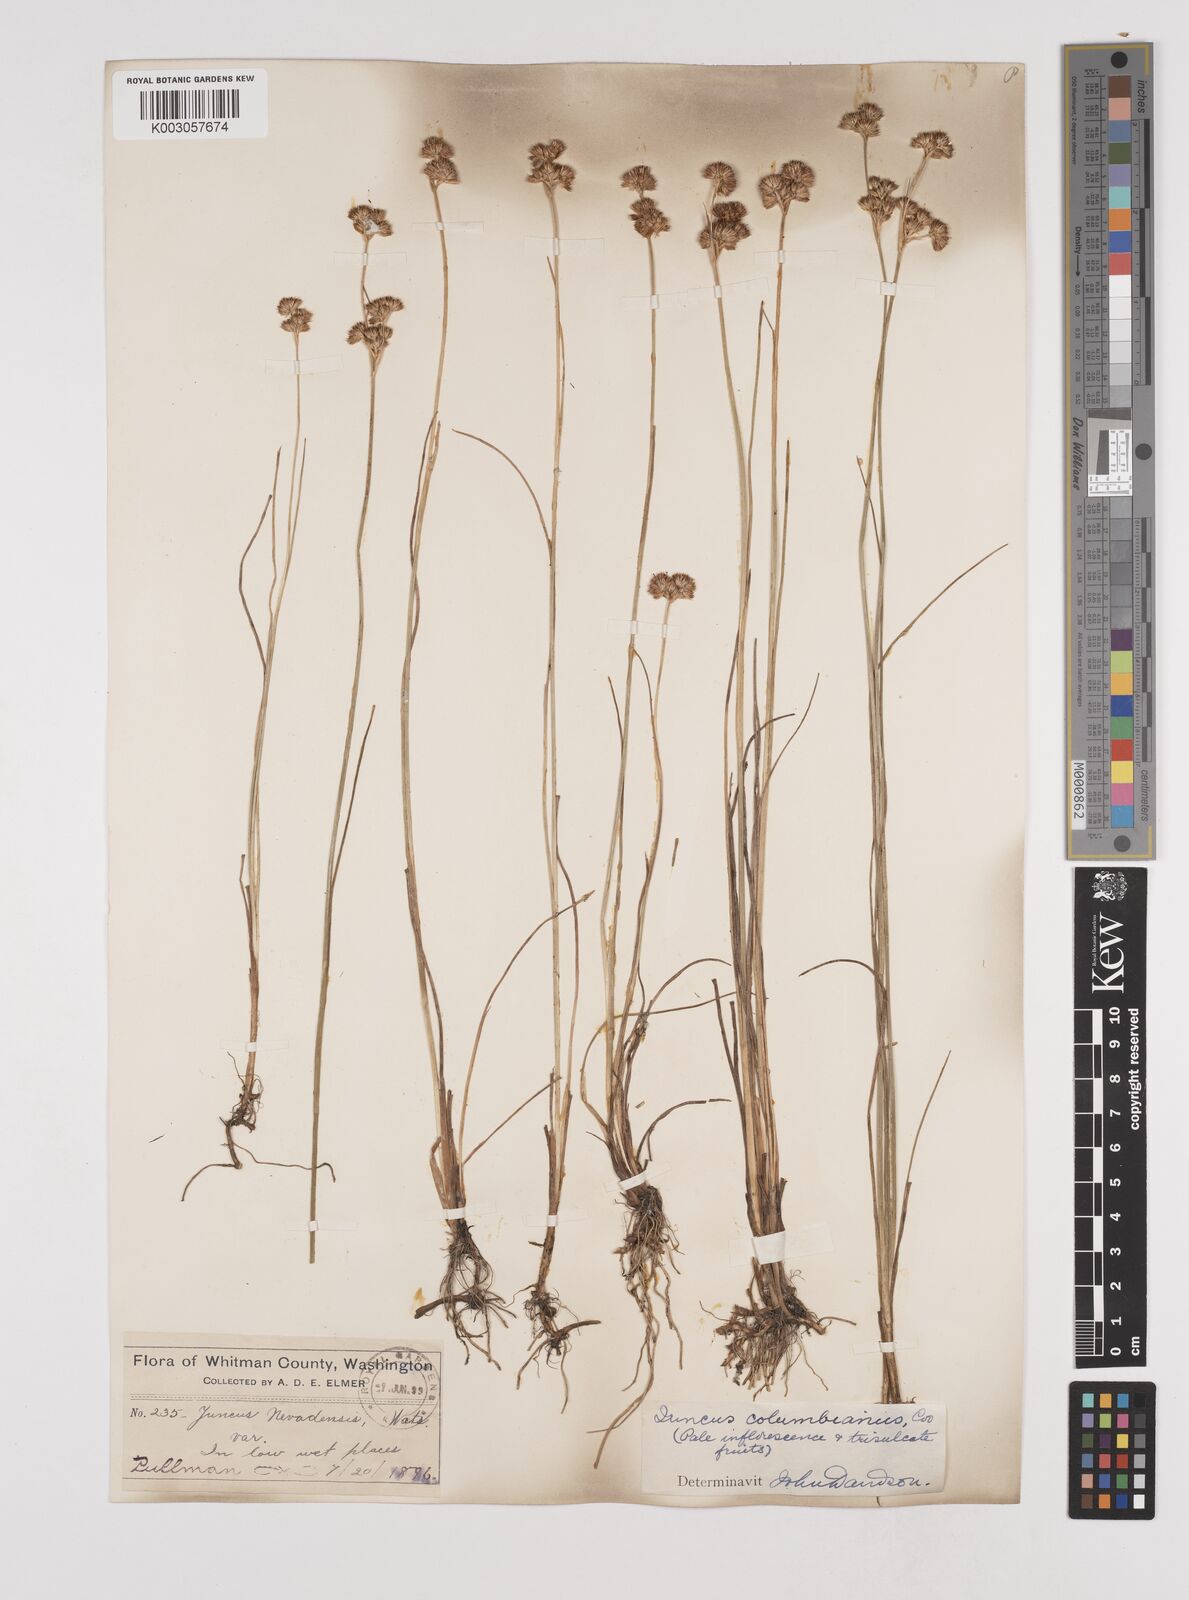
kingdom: Plantae
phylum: Tracheophyta
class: Liliopsida
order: Poales
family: Juncaceae
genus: Juncus
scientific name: Juncus nevadensis
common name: Nevada rush
